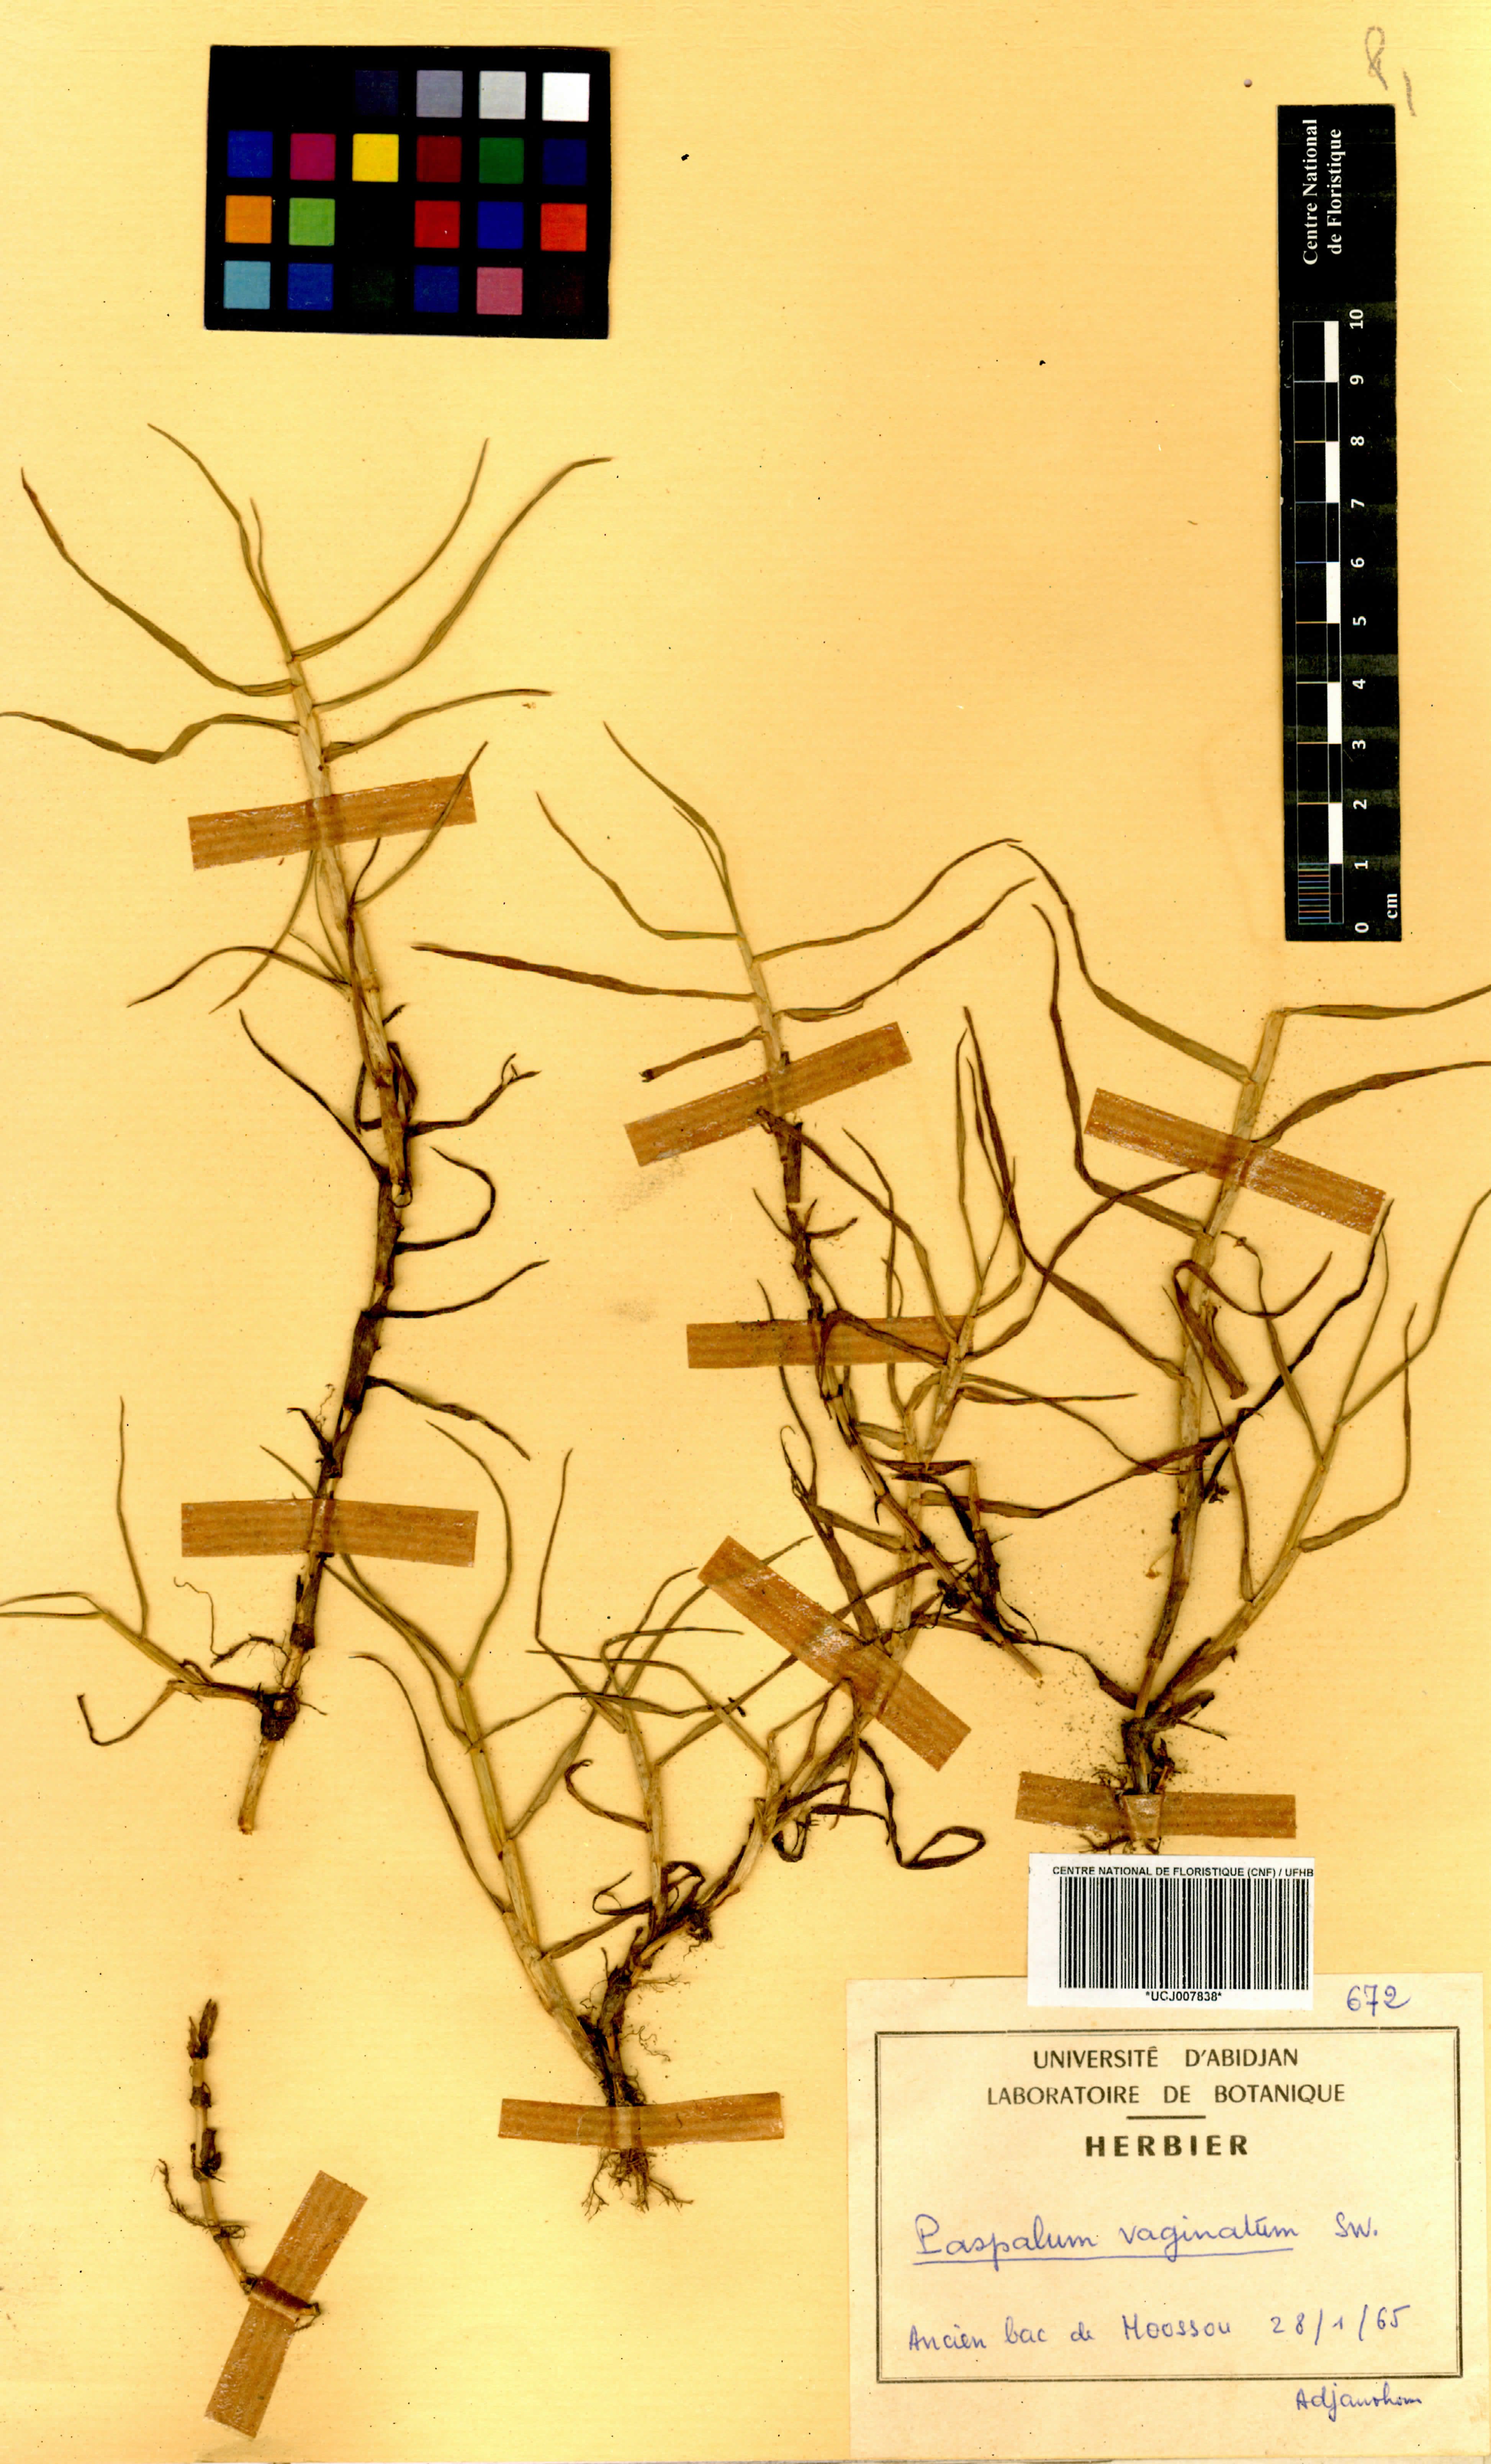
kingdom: Plantae
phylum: Tracheophyta
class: Liliopsida
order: Poales
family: Poaceae
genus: Paspalum
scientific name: Paspalum vaginatum
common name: Seashore paspalum
